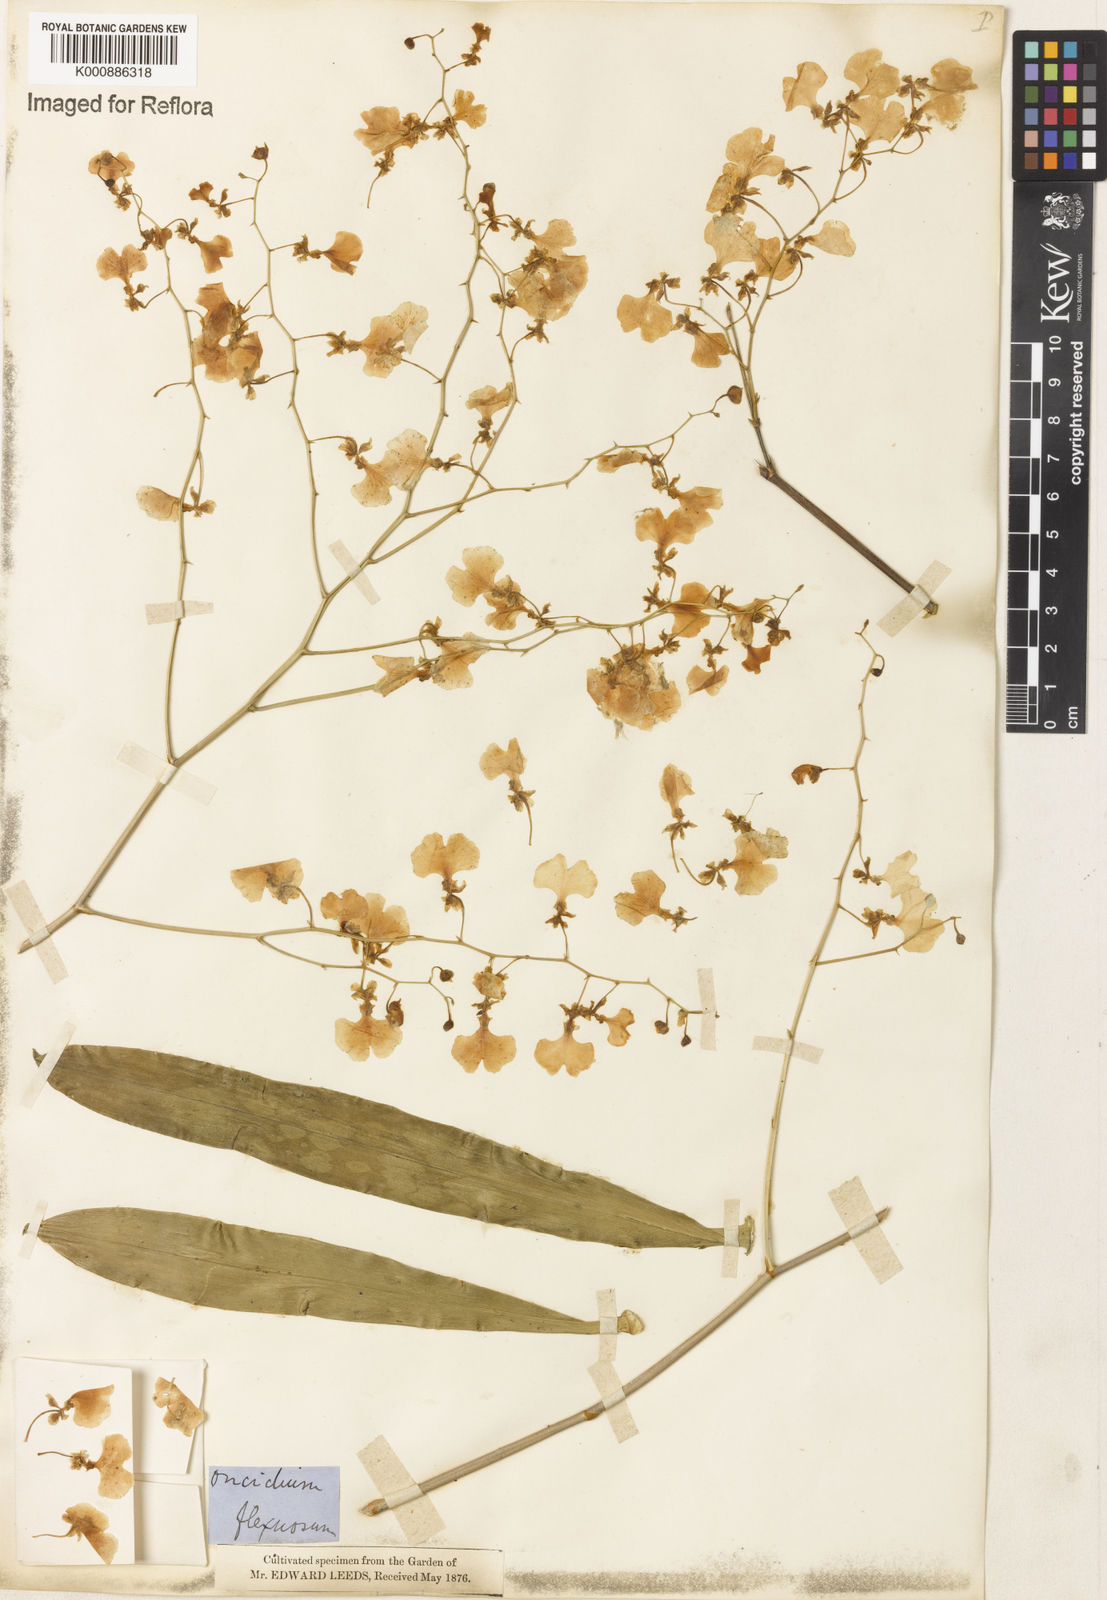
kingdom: Plantae
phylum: Tracheophyta
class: Liliopsida
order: Asparagales
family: Orchidaceae
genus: Gomesa
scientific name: Gomesa flexuosa
